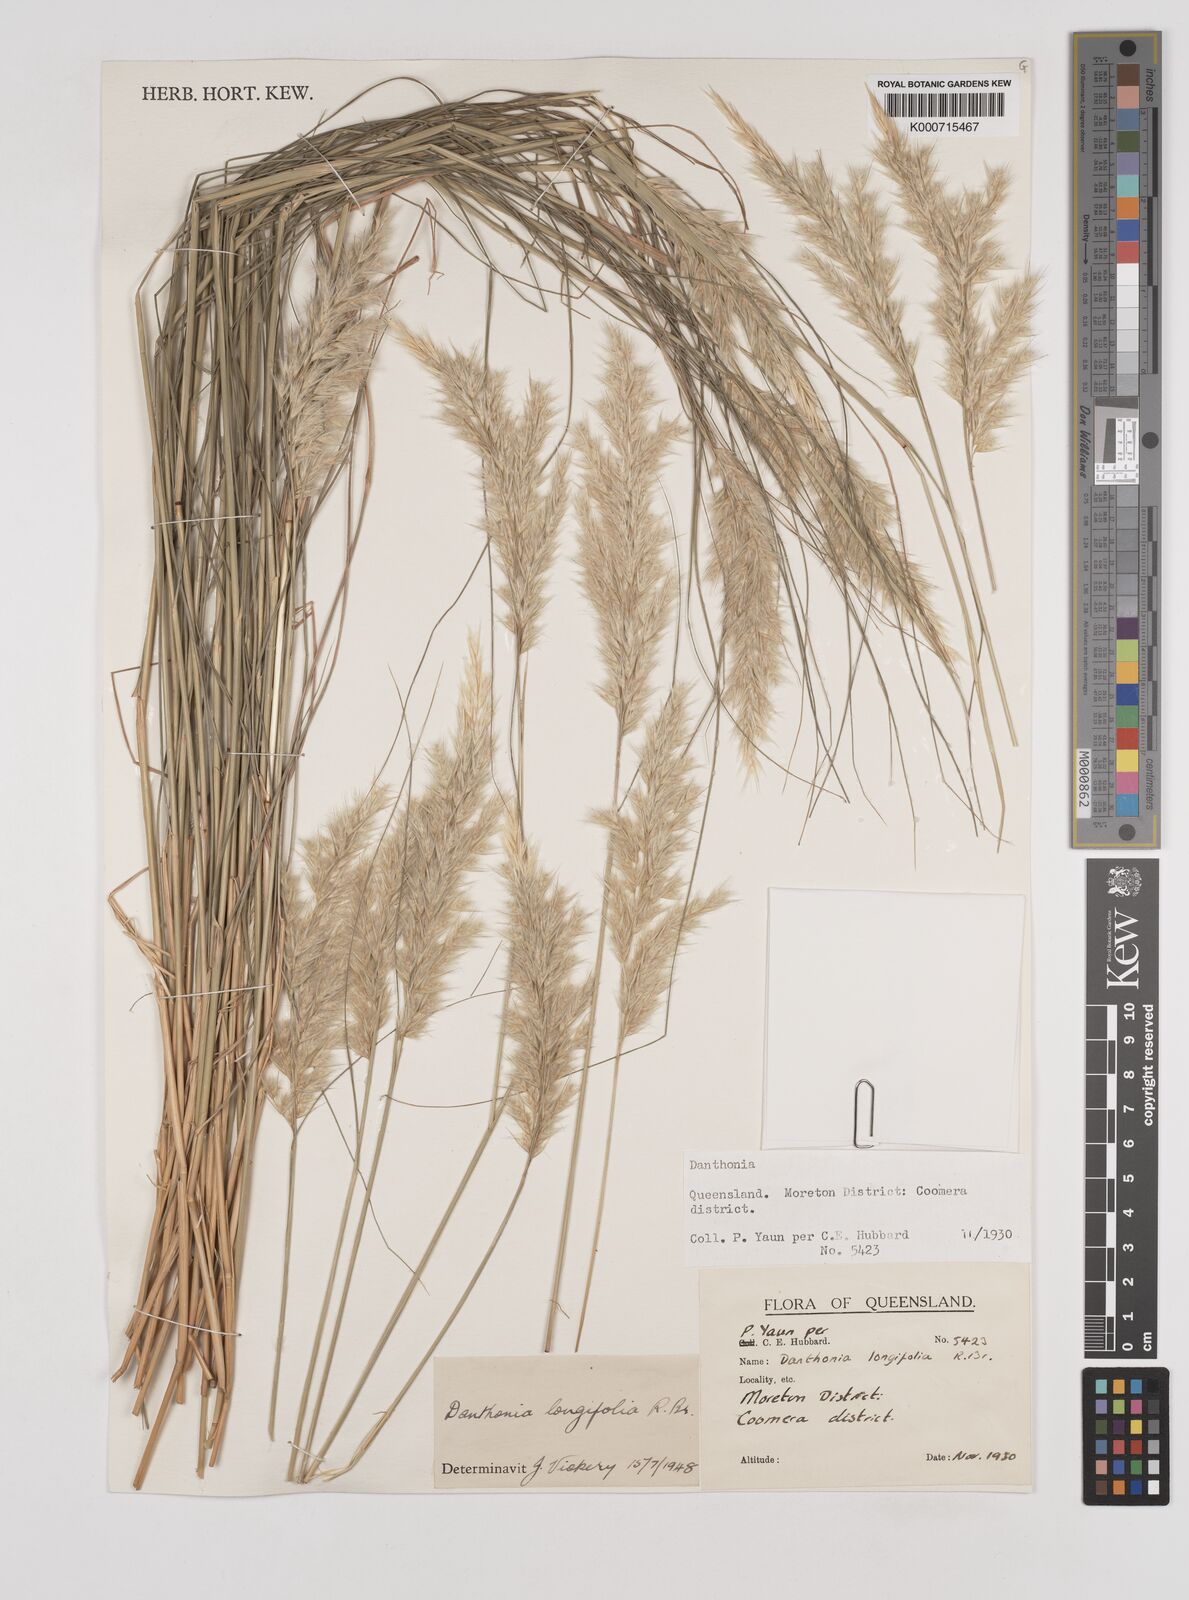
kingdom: Plantae
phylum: Tracheophyta
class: Liliopsida
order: Poales
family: Poaceae
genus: Rytidosperma
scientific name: Rytidosperma longifolium
